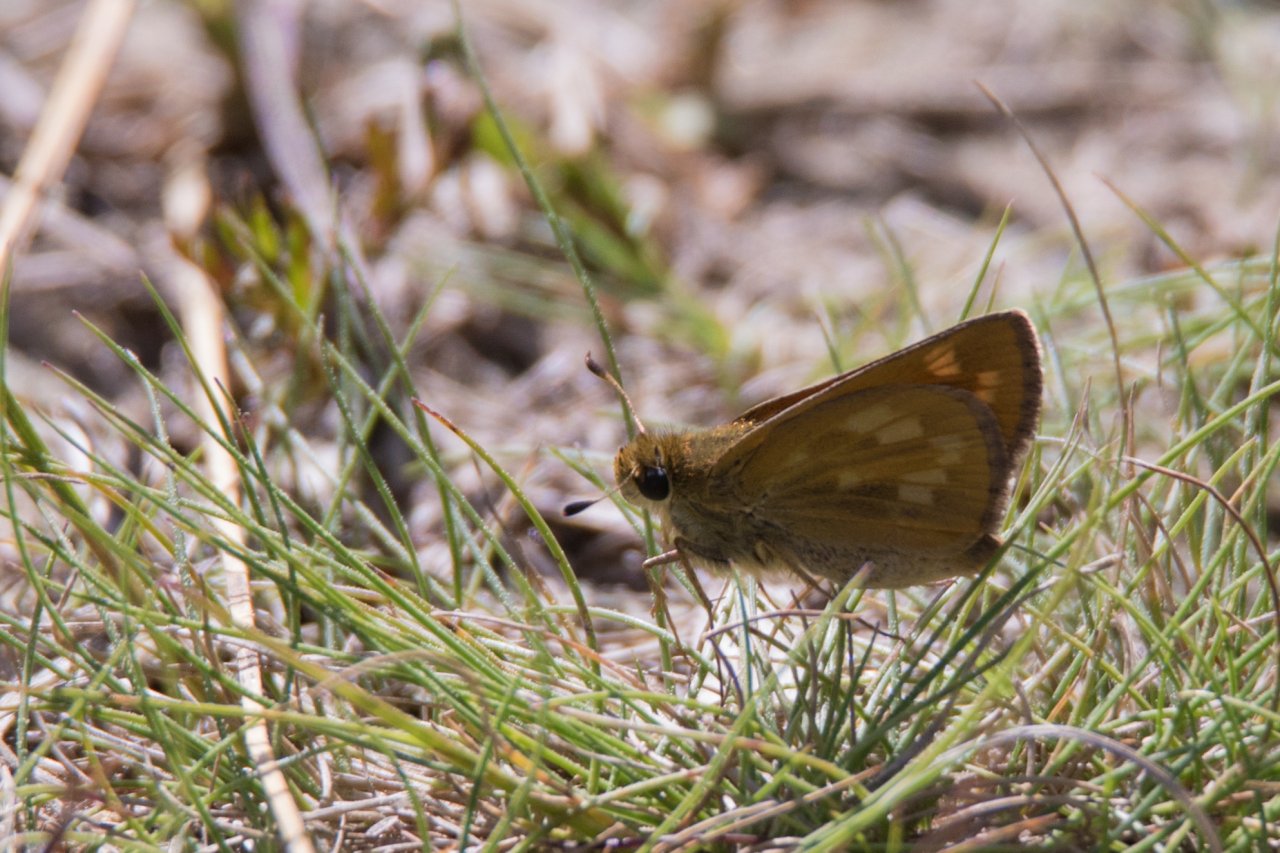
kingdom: Animalia
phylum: Arthropoda
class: Insecta
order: Lepidoptera
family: Hesperiidae
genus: Hesperia
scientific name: Hesperia sassacus
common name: Sassacus Skipper
